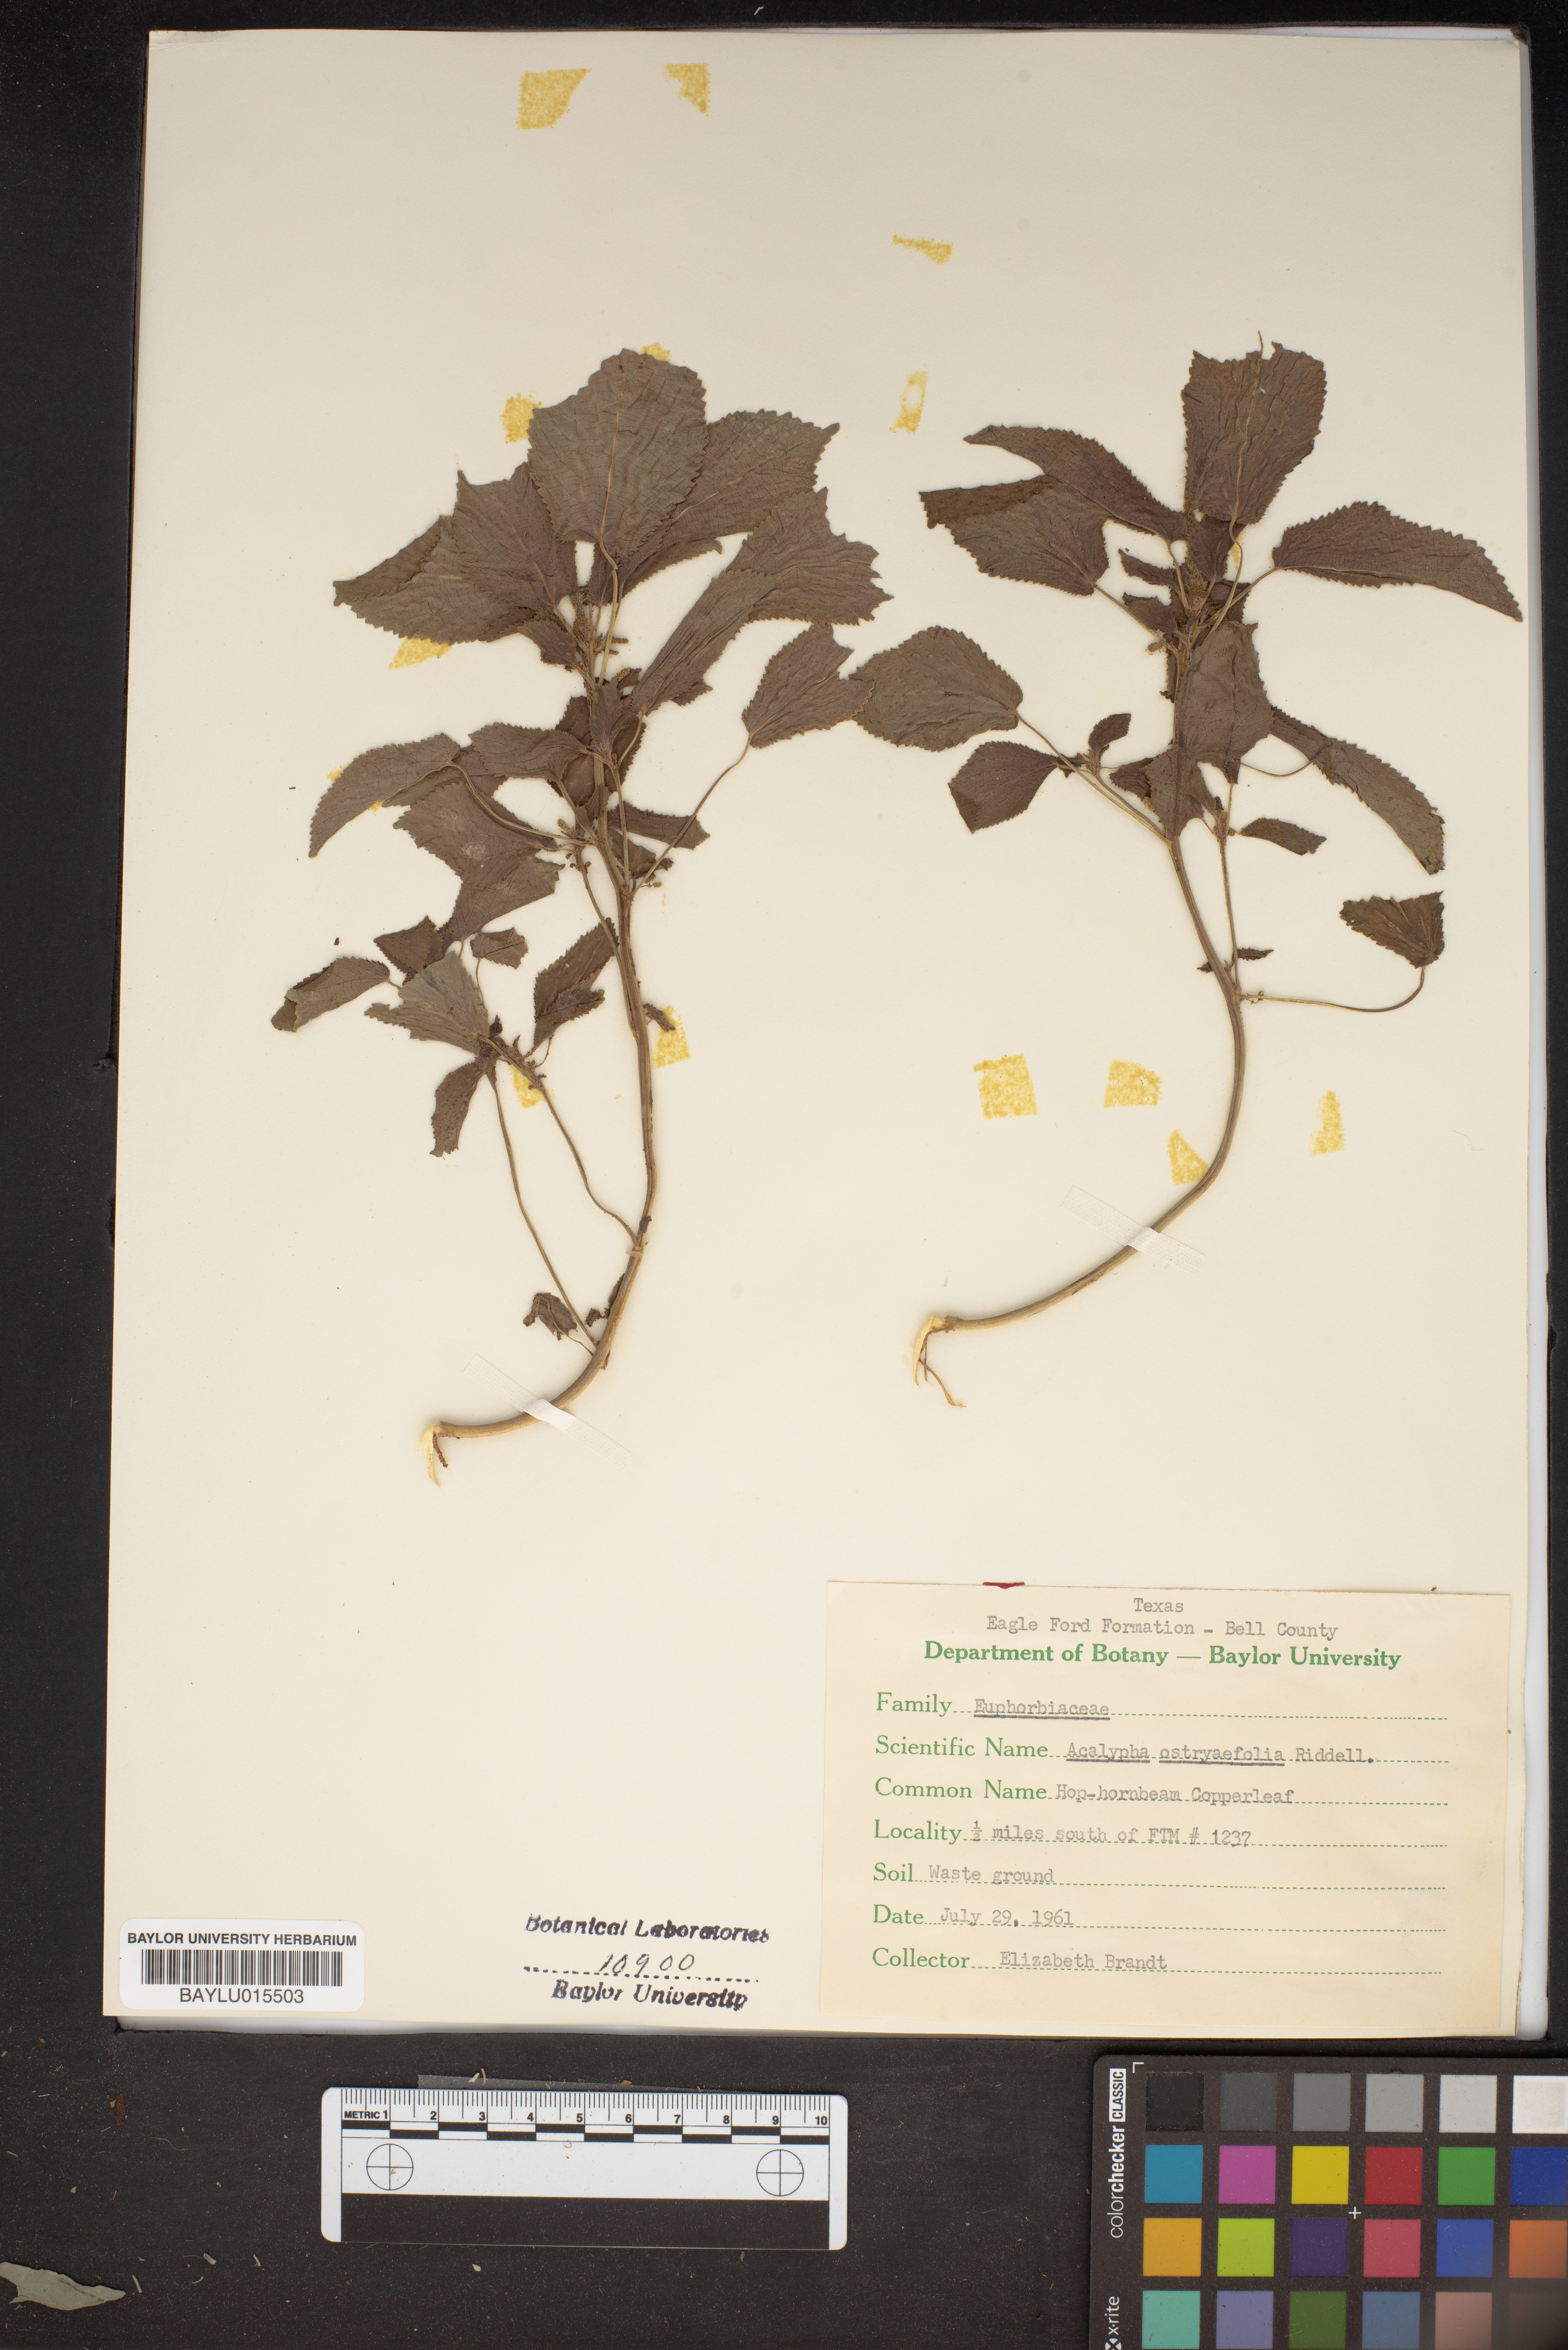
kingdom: Plantae
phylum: Tracheophyta
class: Magnoliopsida
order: Malpighiales
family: Euphorbiaceae
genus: Acalypha
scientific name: Acalypha ostryifolia
